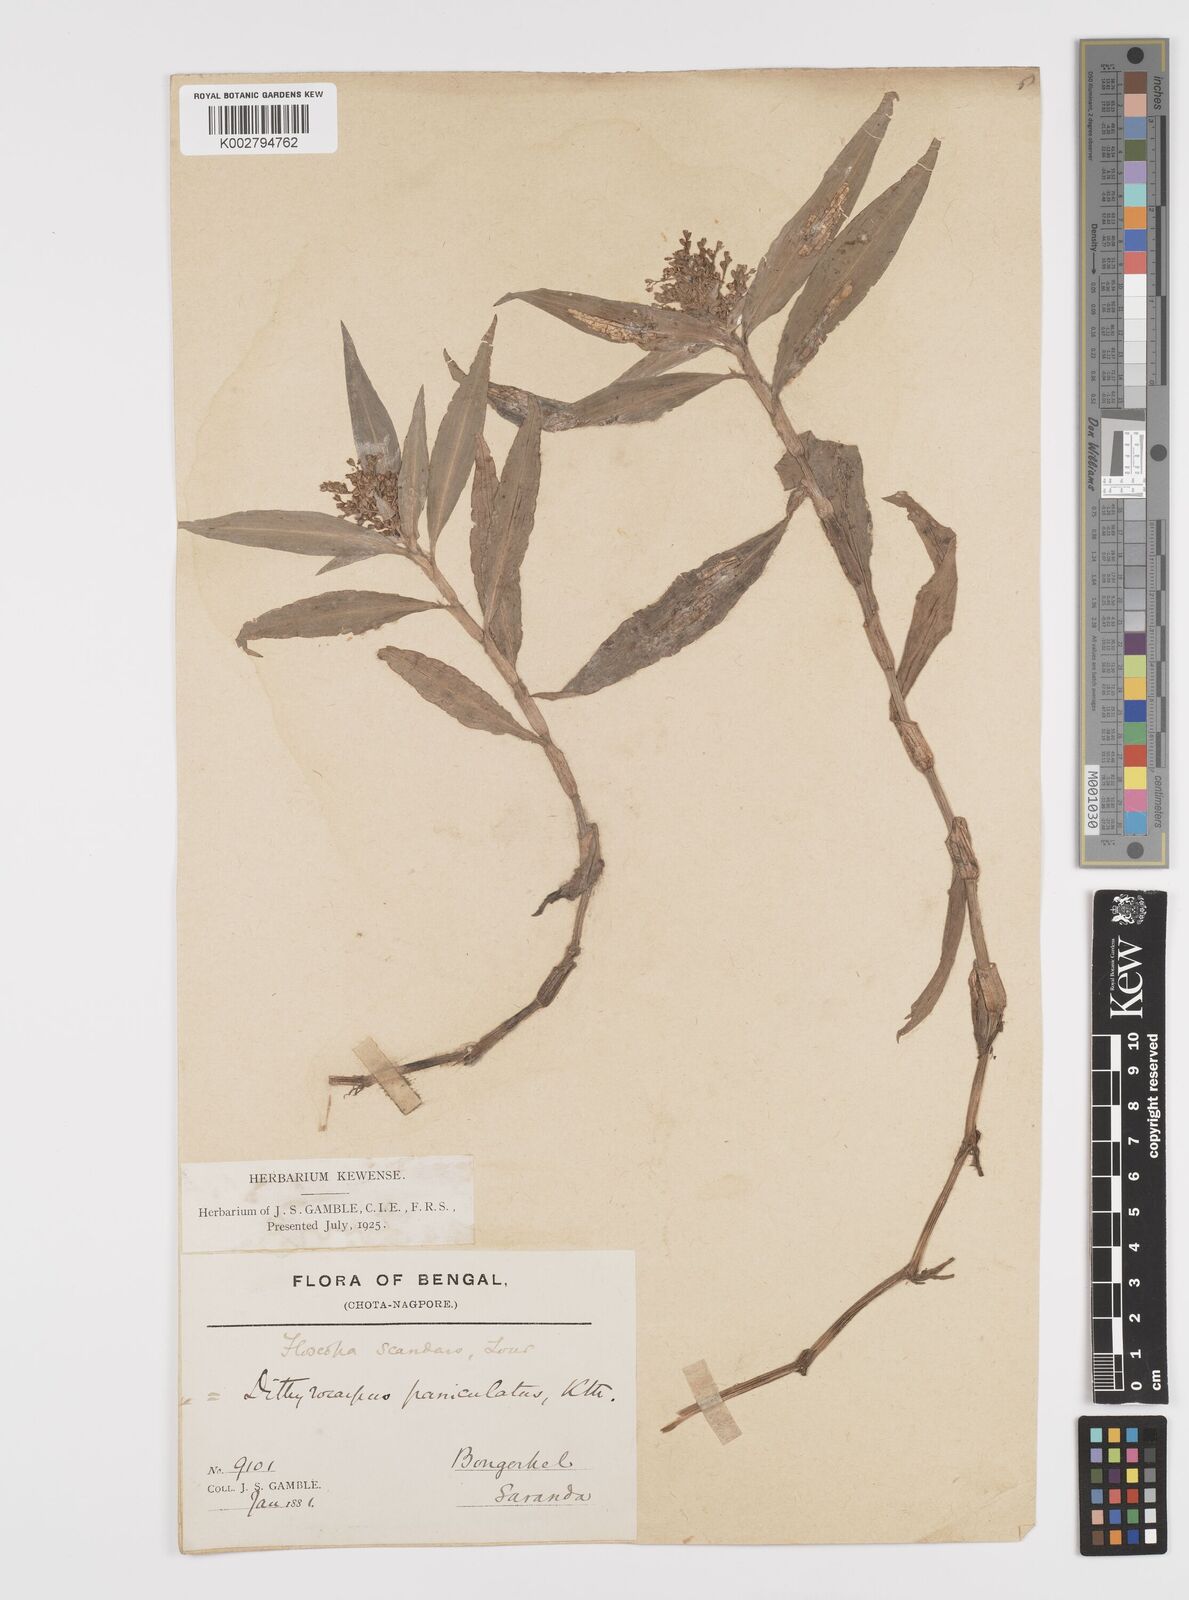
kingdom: Plantae
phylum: Tracheophyta
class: Liliopsida
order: Commelinales
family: Commelinaceae
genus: Floscopa
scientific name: Floscopa scandens
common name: Climbing flower cup
